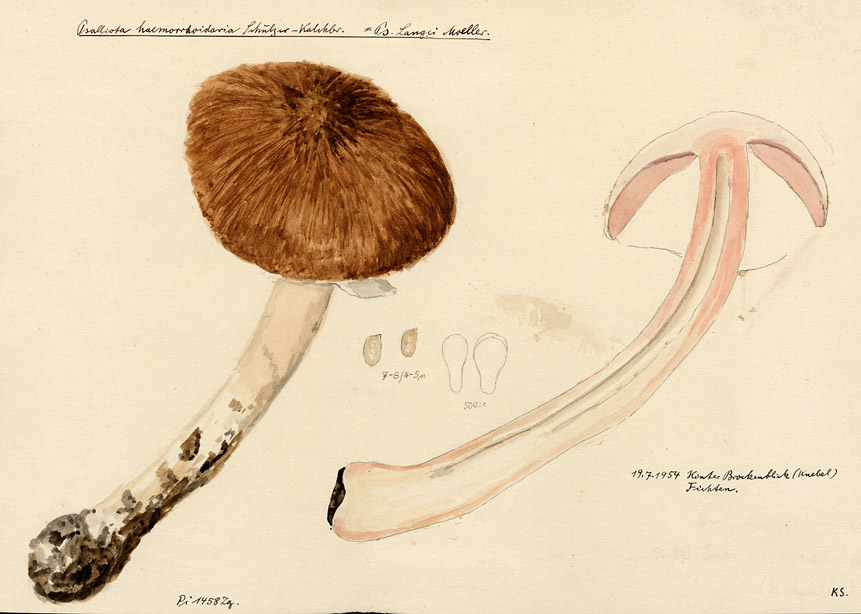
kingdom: Fungi
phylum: Basidiomycota
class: Agaricomycetes
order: Agaricales
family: Agaricaceae
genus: Agaricus
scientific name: Agaricus langei
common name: Scaly wood mushroom
